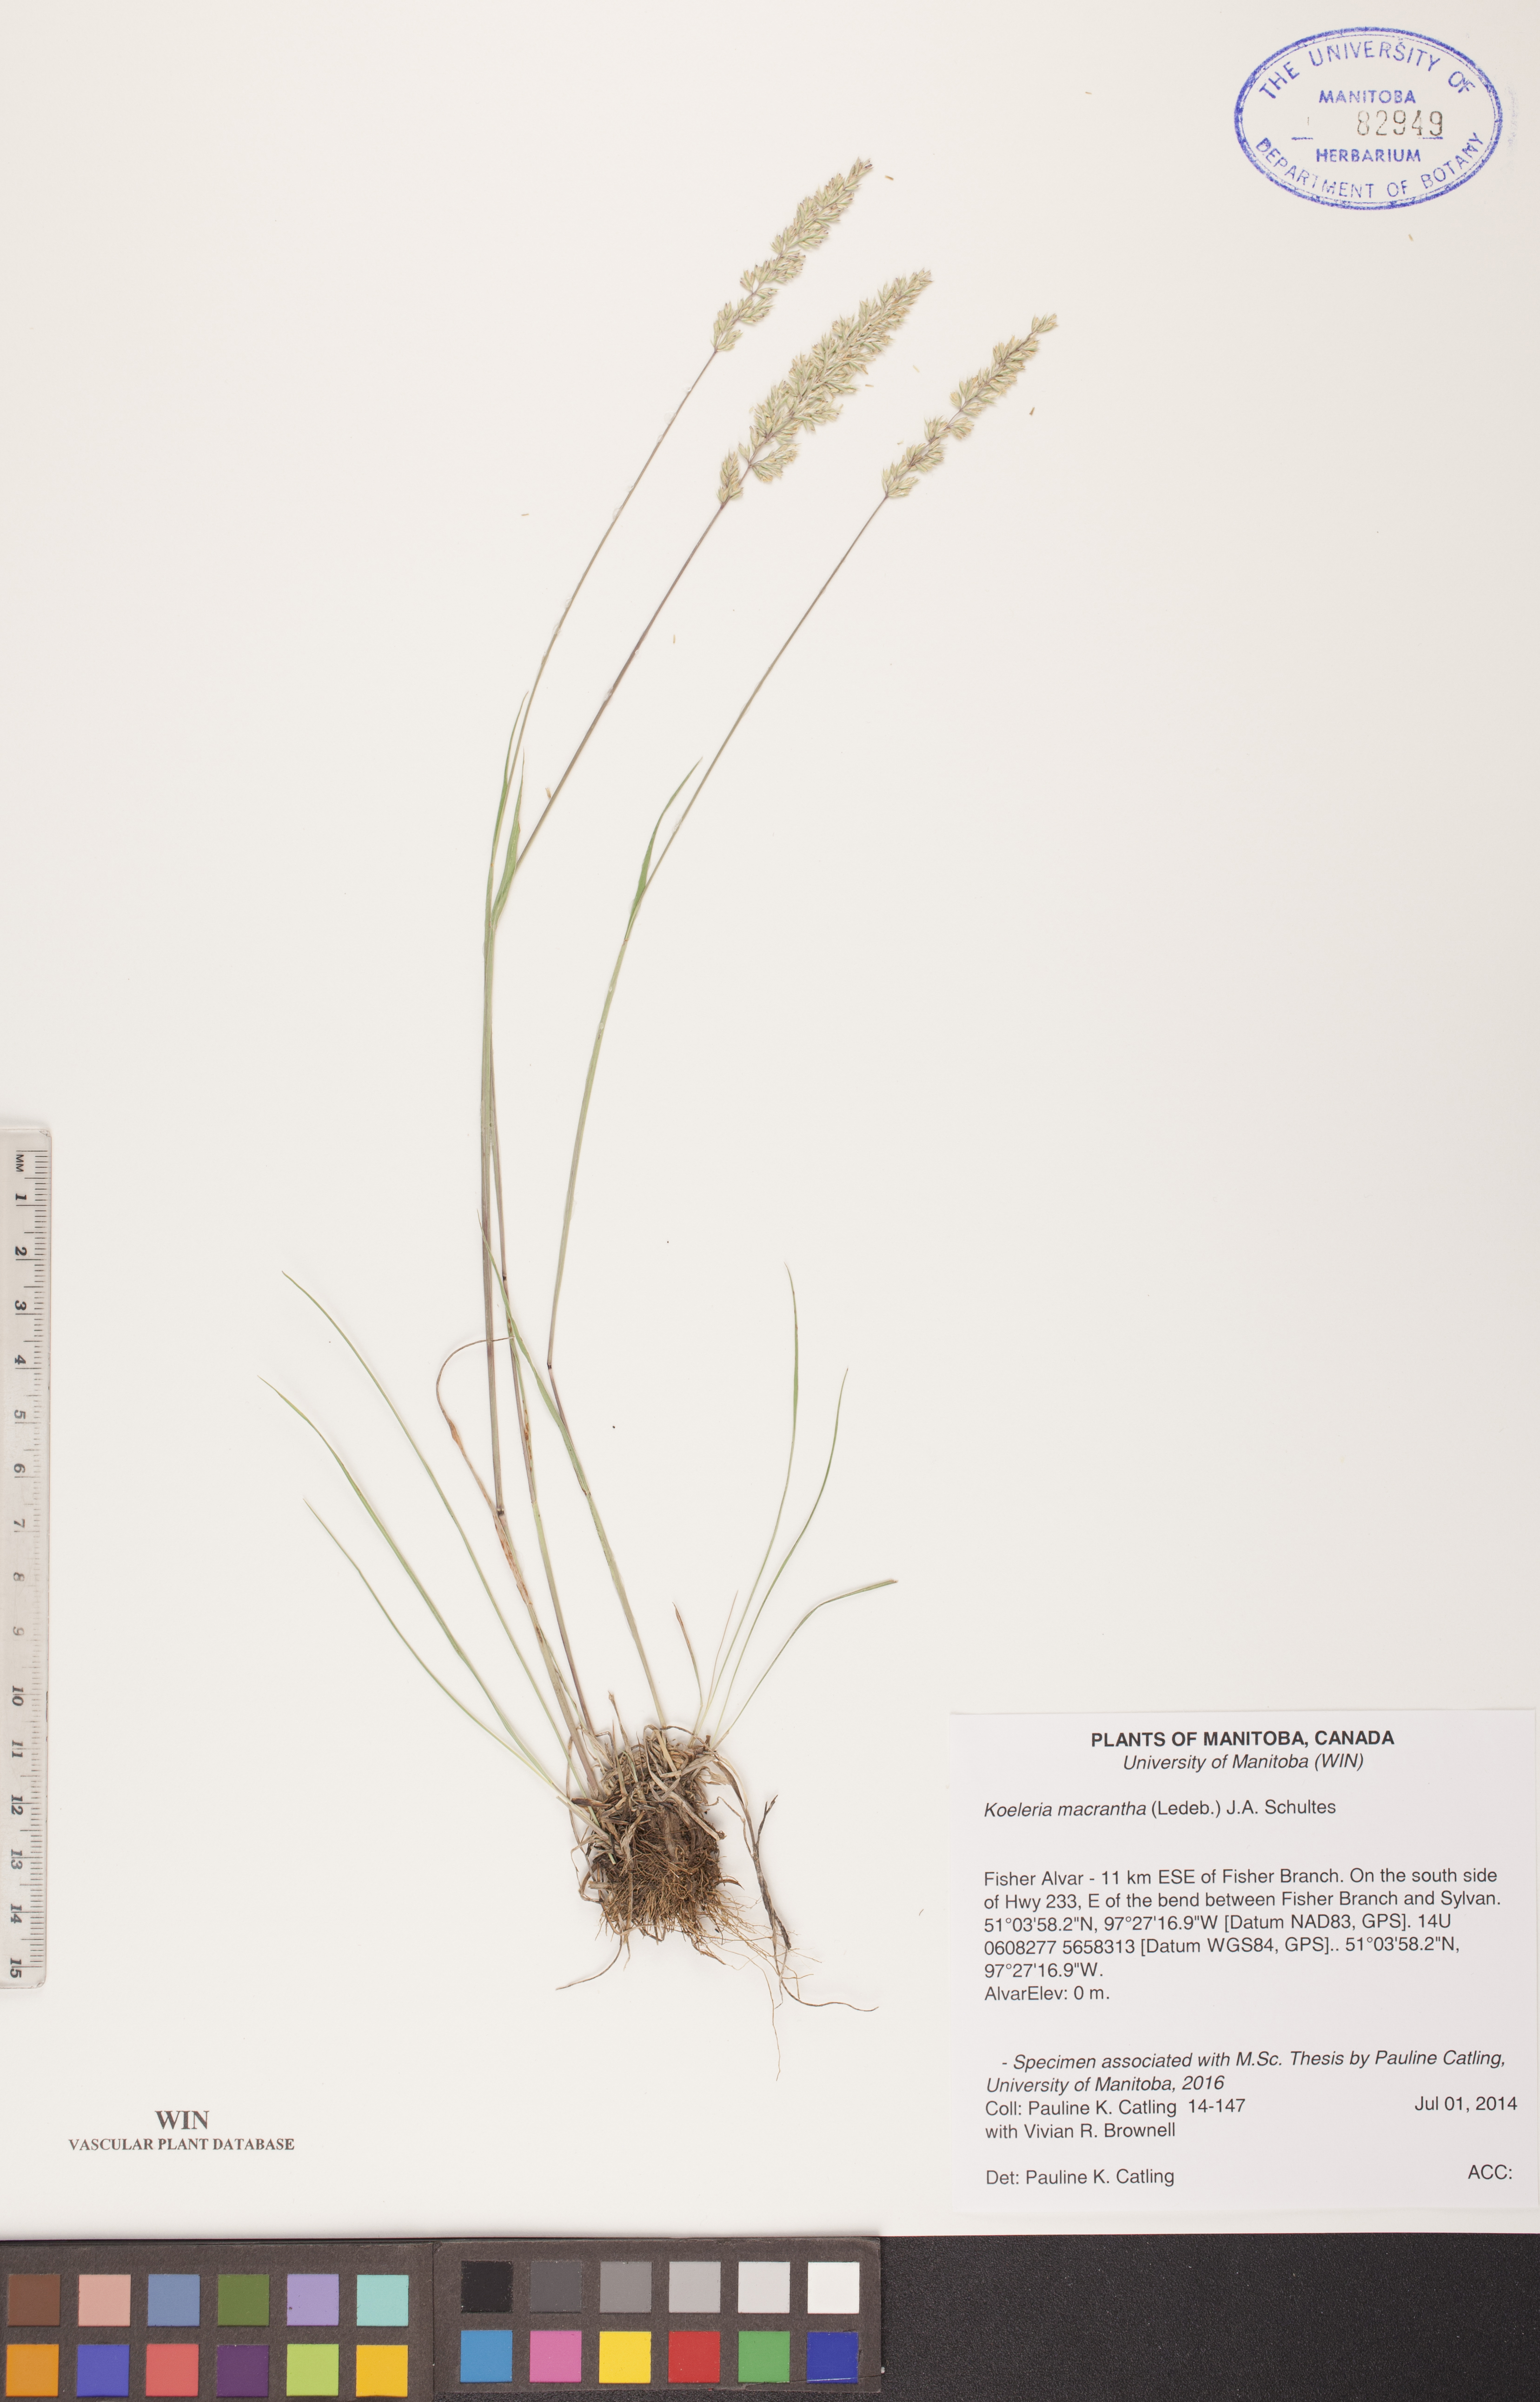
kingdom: Plantae
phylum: Tracheophyta
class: Liliopsida
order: Poales
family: Poaceae
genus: Koeleria
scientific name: Koeleria macrantha
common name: Crested hair-grass
